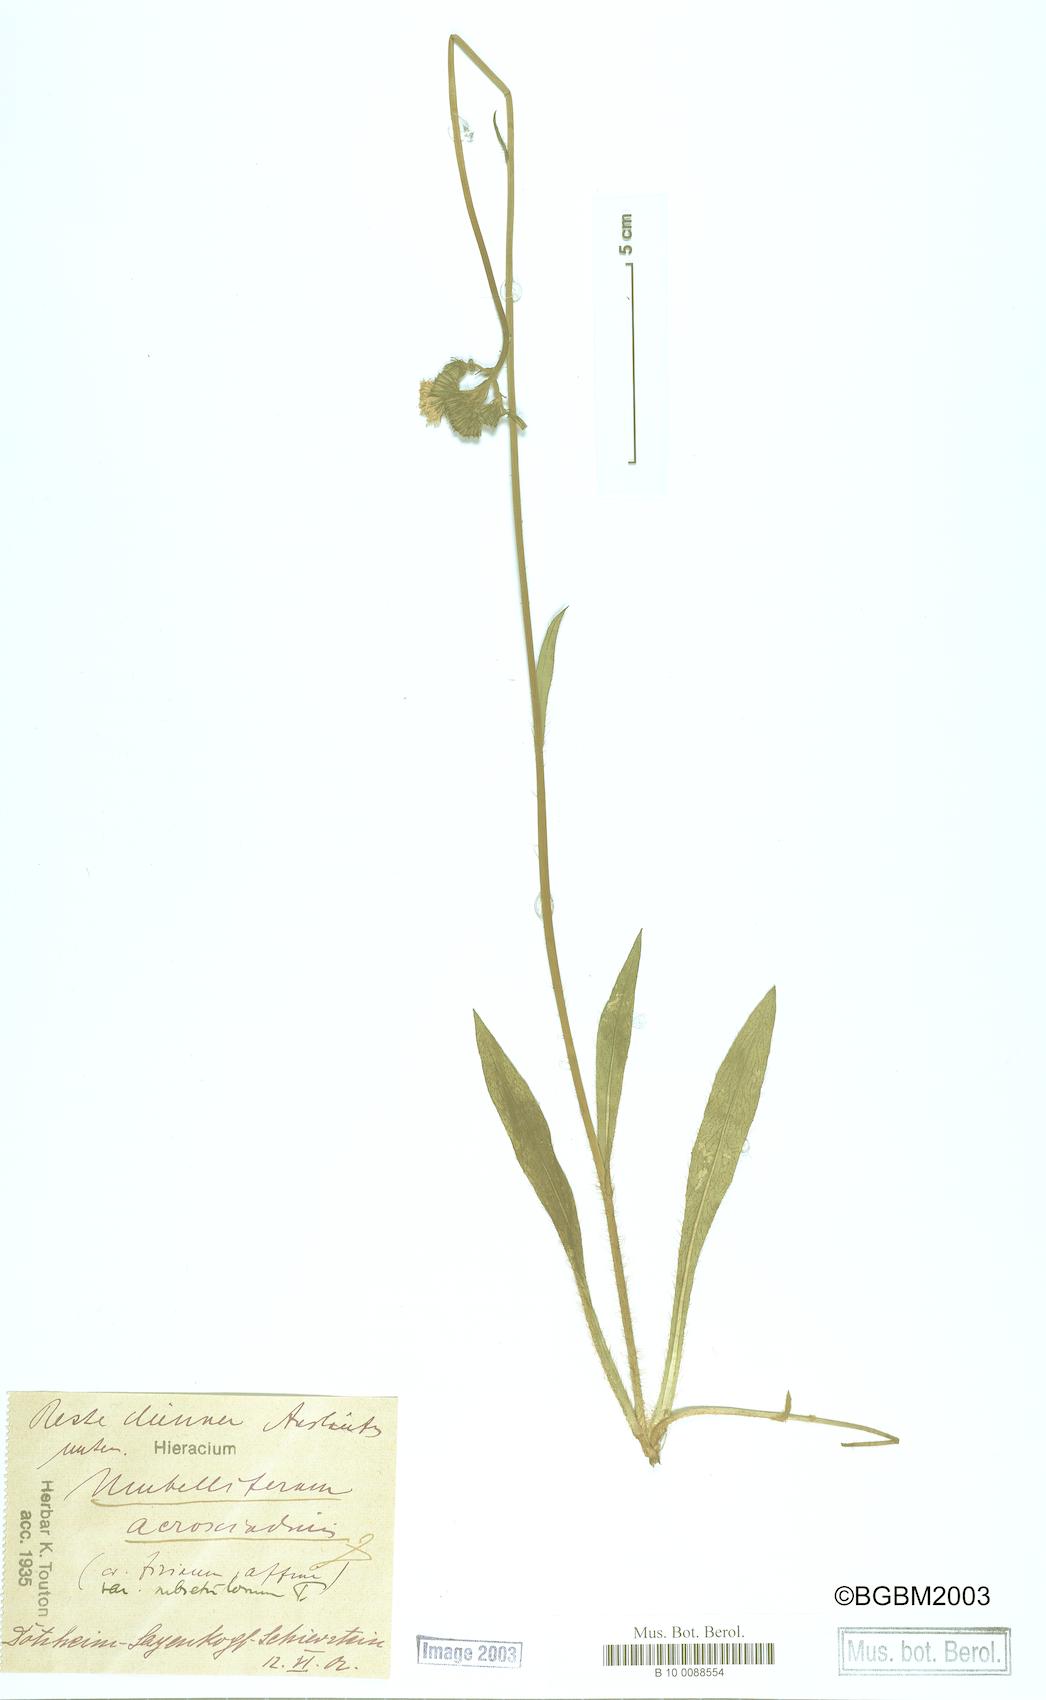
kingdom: Plantae
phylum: Tracheophyta
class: Magnoliopsida
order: Asterales
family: Asteraceae
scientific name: Asteraceae
